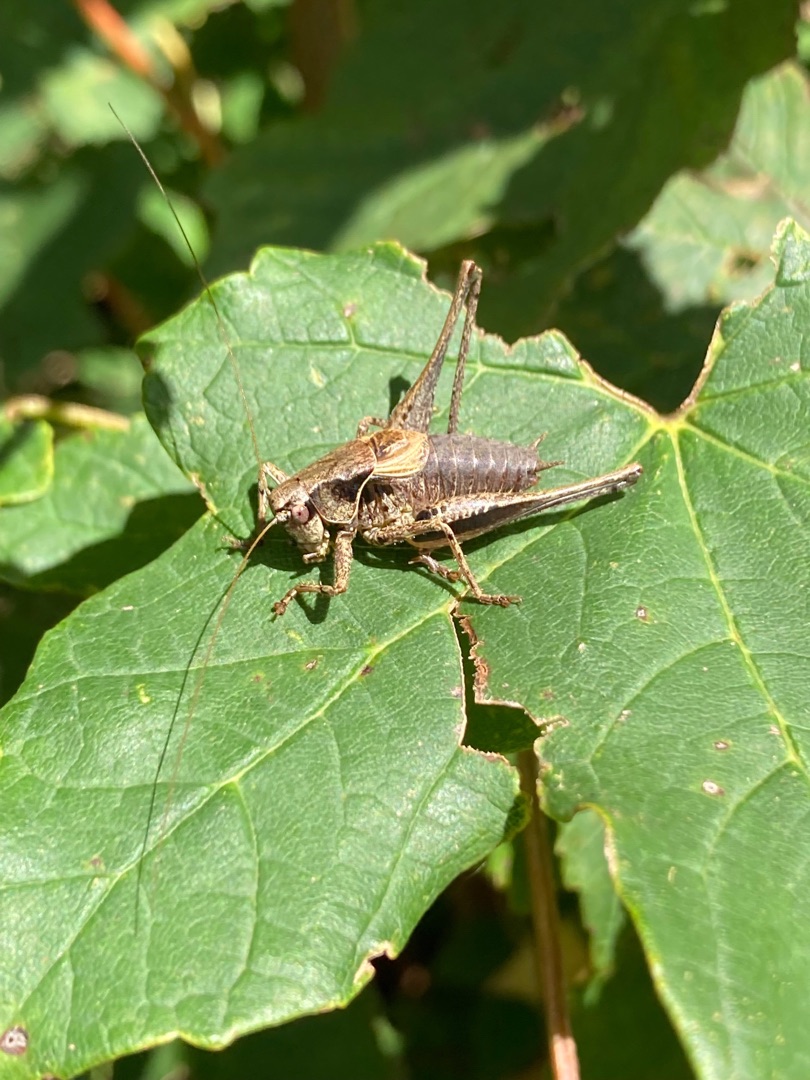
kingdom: Animalia
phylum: Arthropoda
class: Insecta
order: Orthoptera
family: Tettigoniidae
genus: Pholidoptera
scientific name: Pholidoptera griseoaptera
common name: Buskgræshoppe
